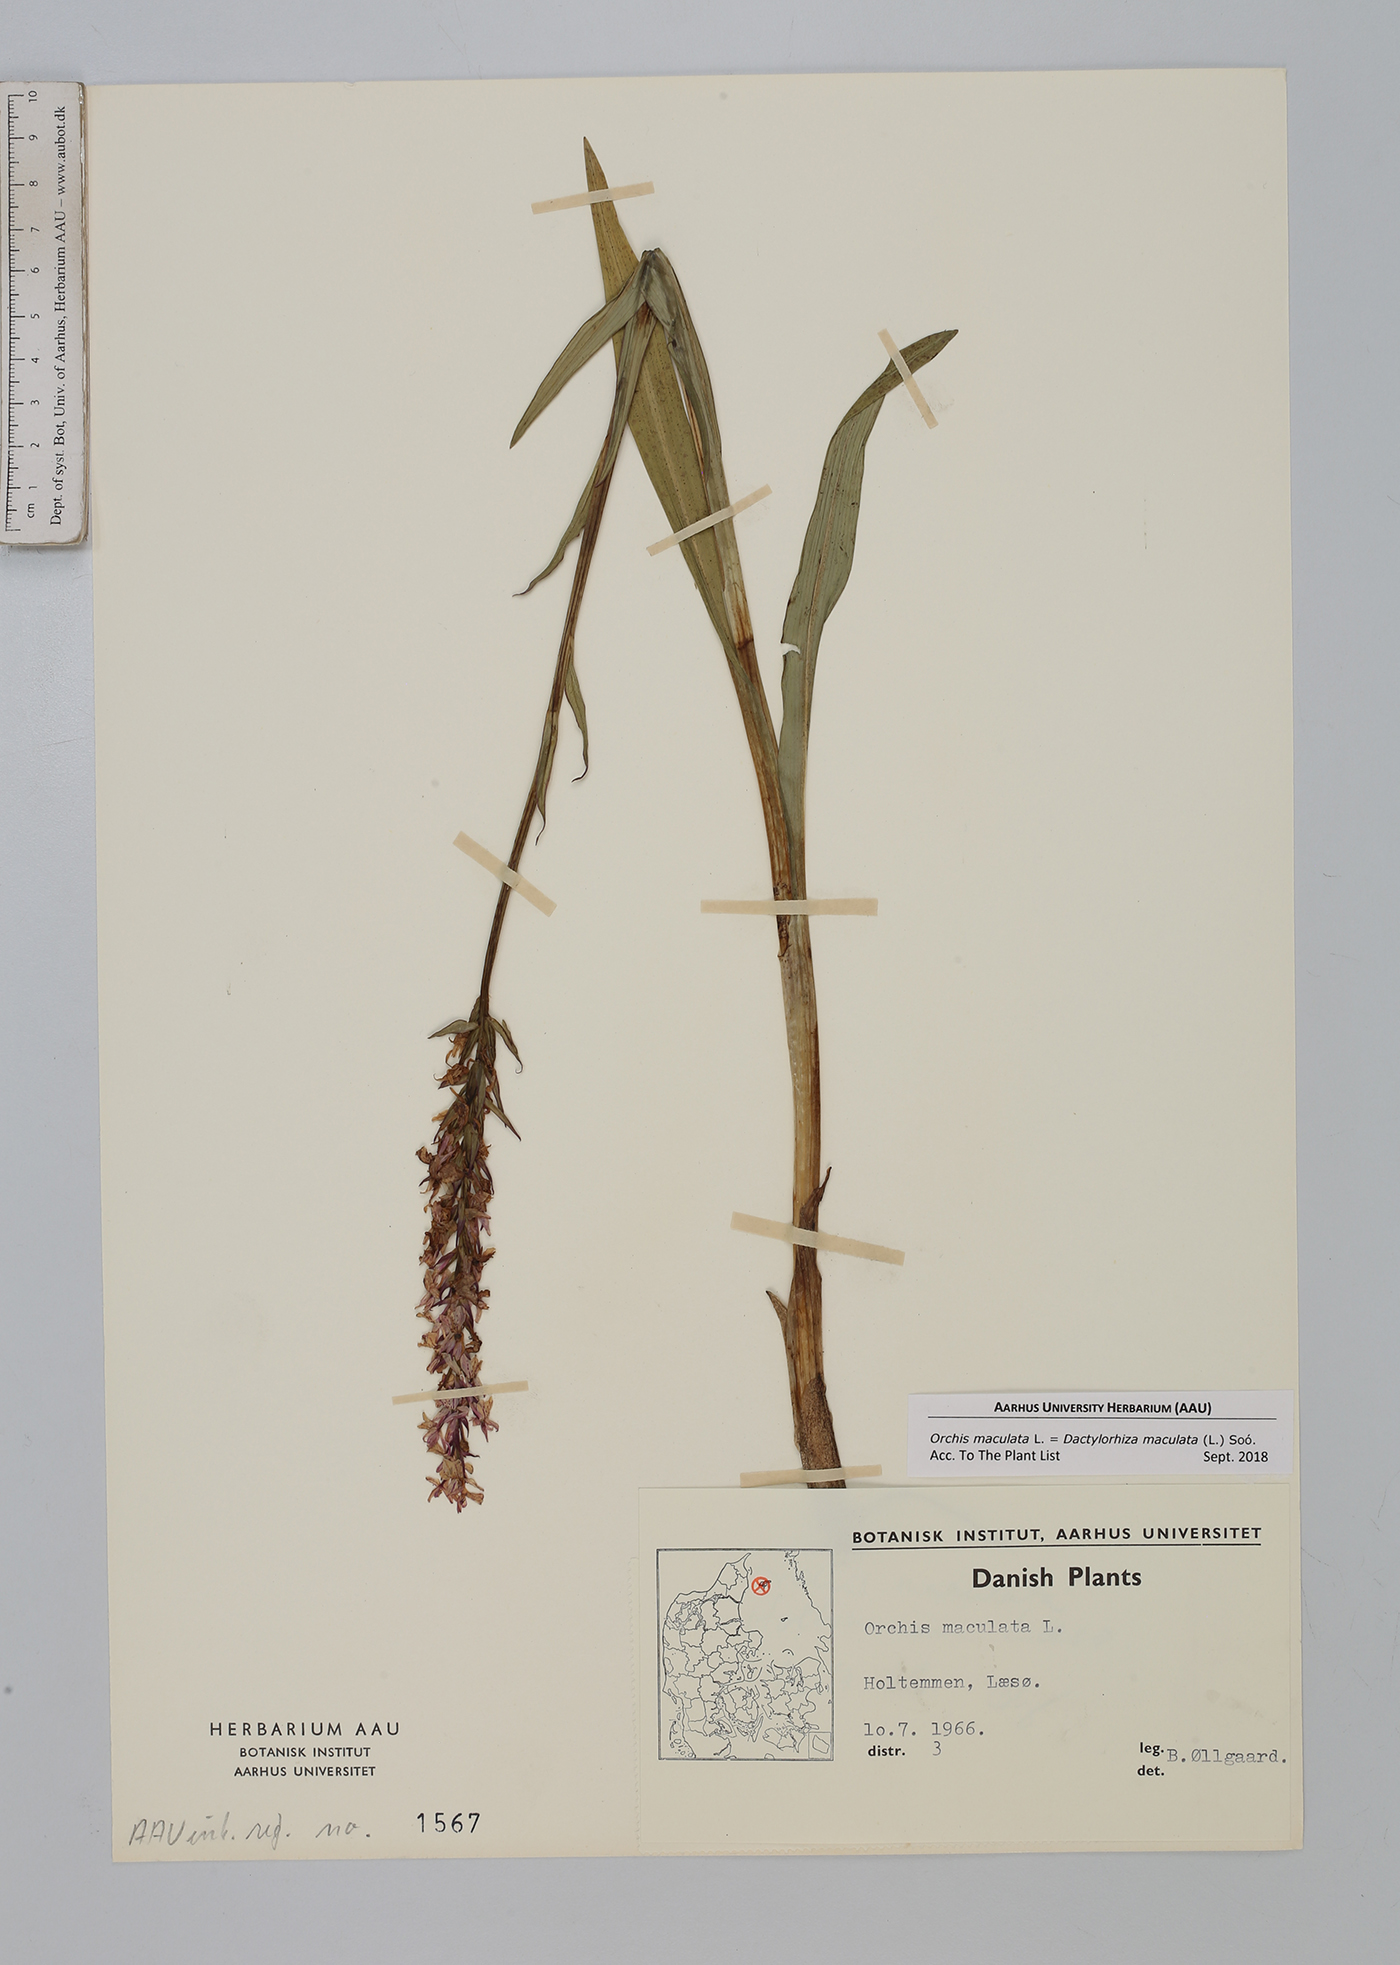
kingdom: Plantae
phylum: Tracheophyta
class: Liliopsida
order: Asparagales
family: Orchidaceae
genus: Dactylorhiza
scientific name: Dactylorhiza maculata
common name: Heath spotted-orchid
